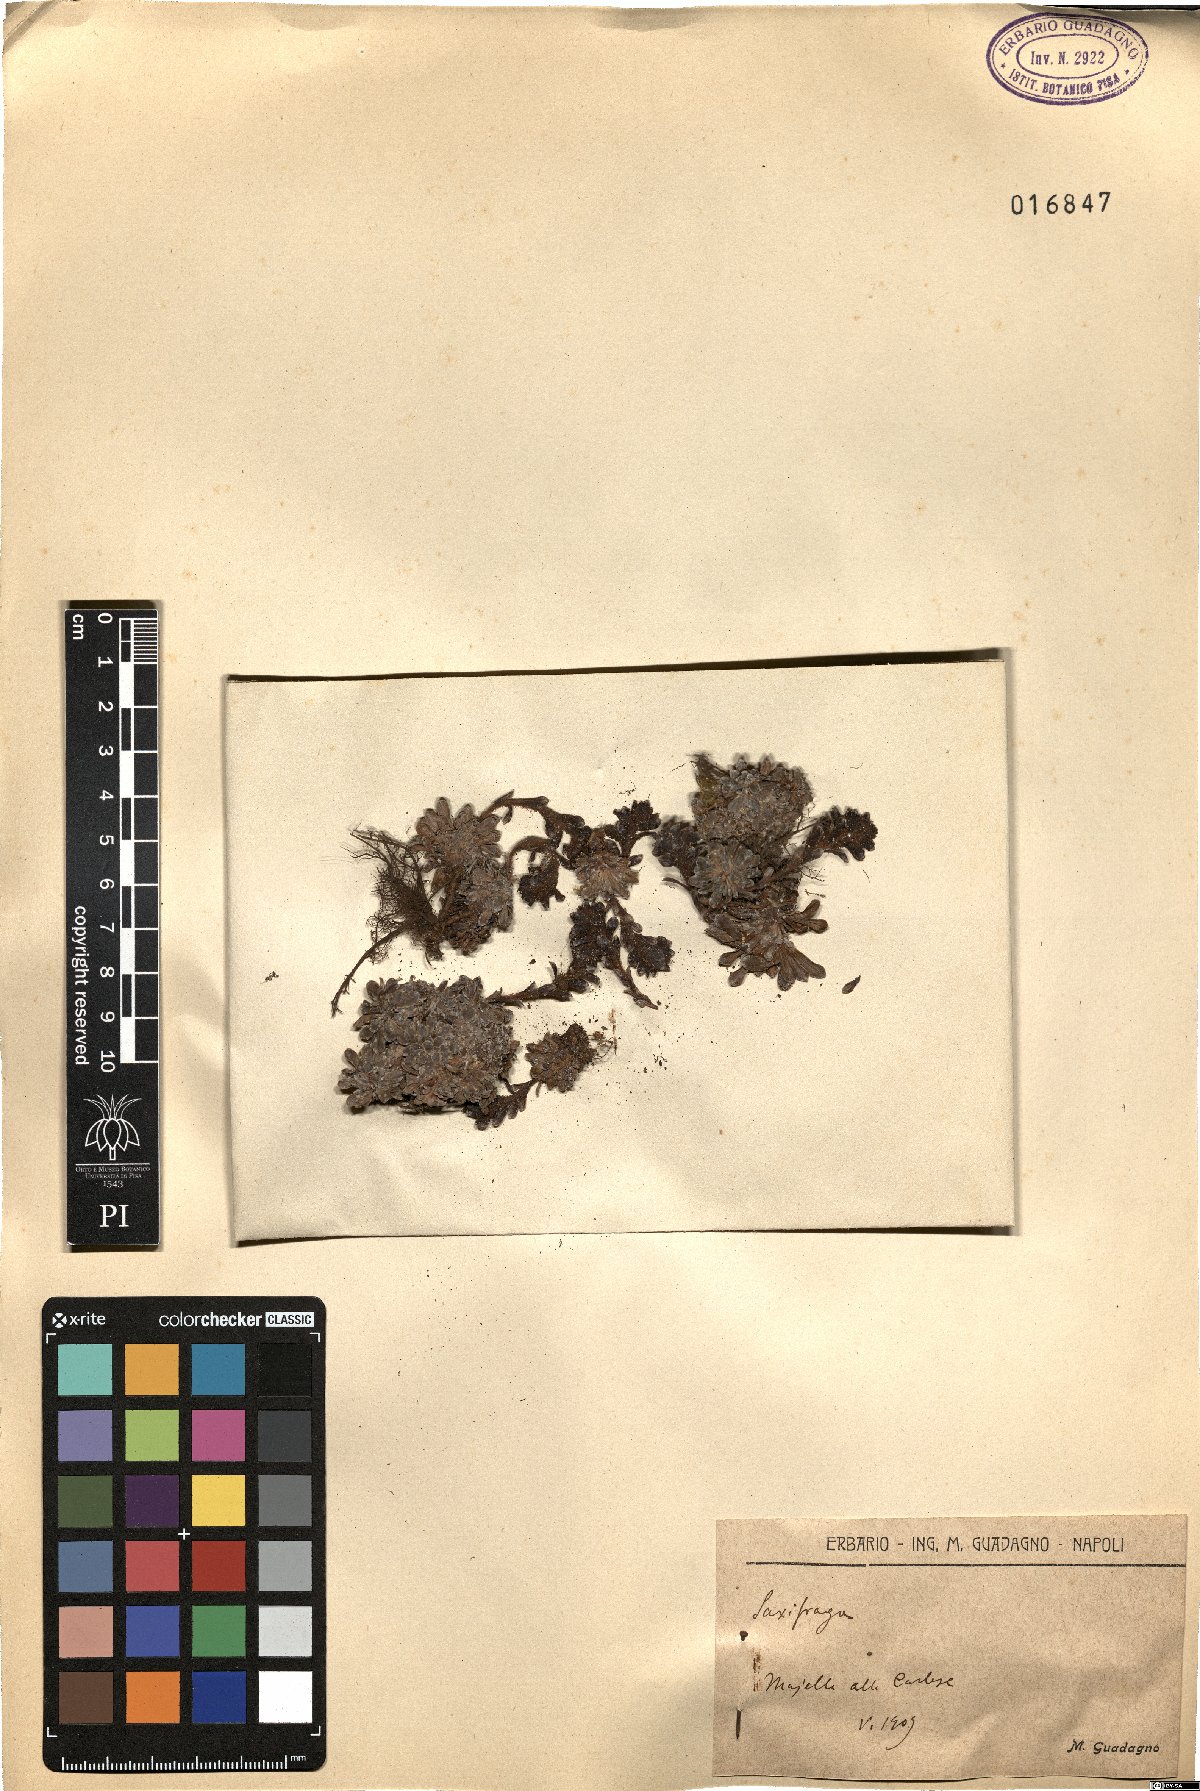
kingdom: Plantae
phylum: Tracheophyta
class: Magnoliopsida
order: Saxifragales
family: Saxifragaceae
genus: Saxifraga
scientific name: Saxifraga
